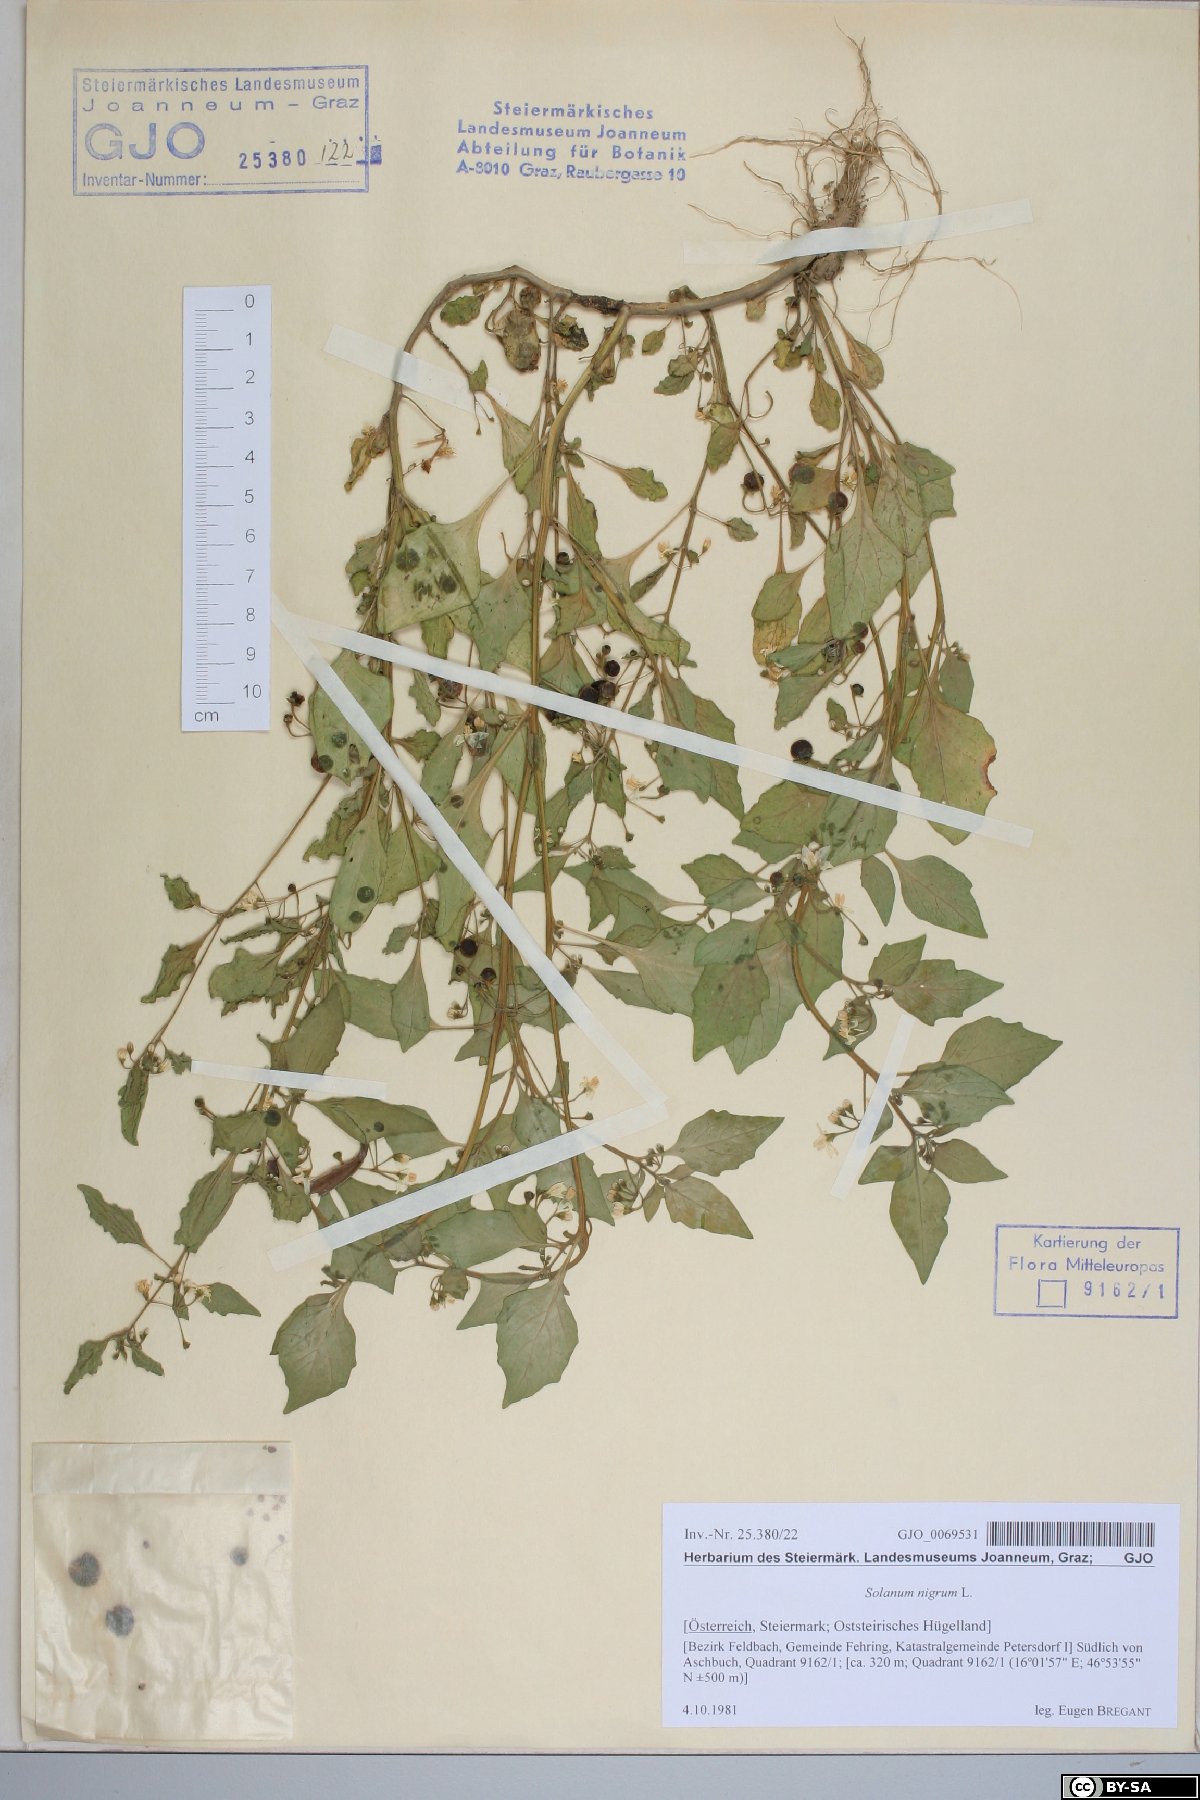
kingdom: Plantae
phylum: Tracheophyta
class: Magnoliopsida
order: Solanales
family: Solanaceae
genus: Solanum
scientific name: Solanum nigrum
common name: Black nightshade
